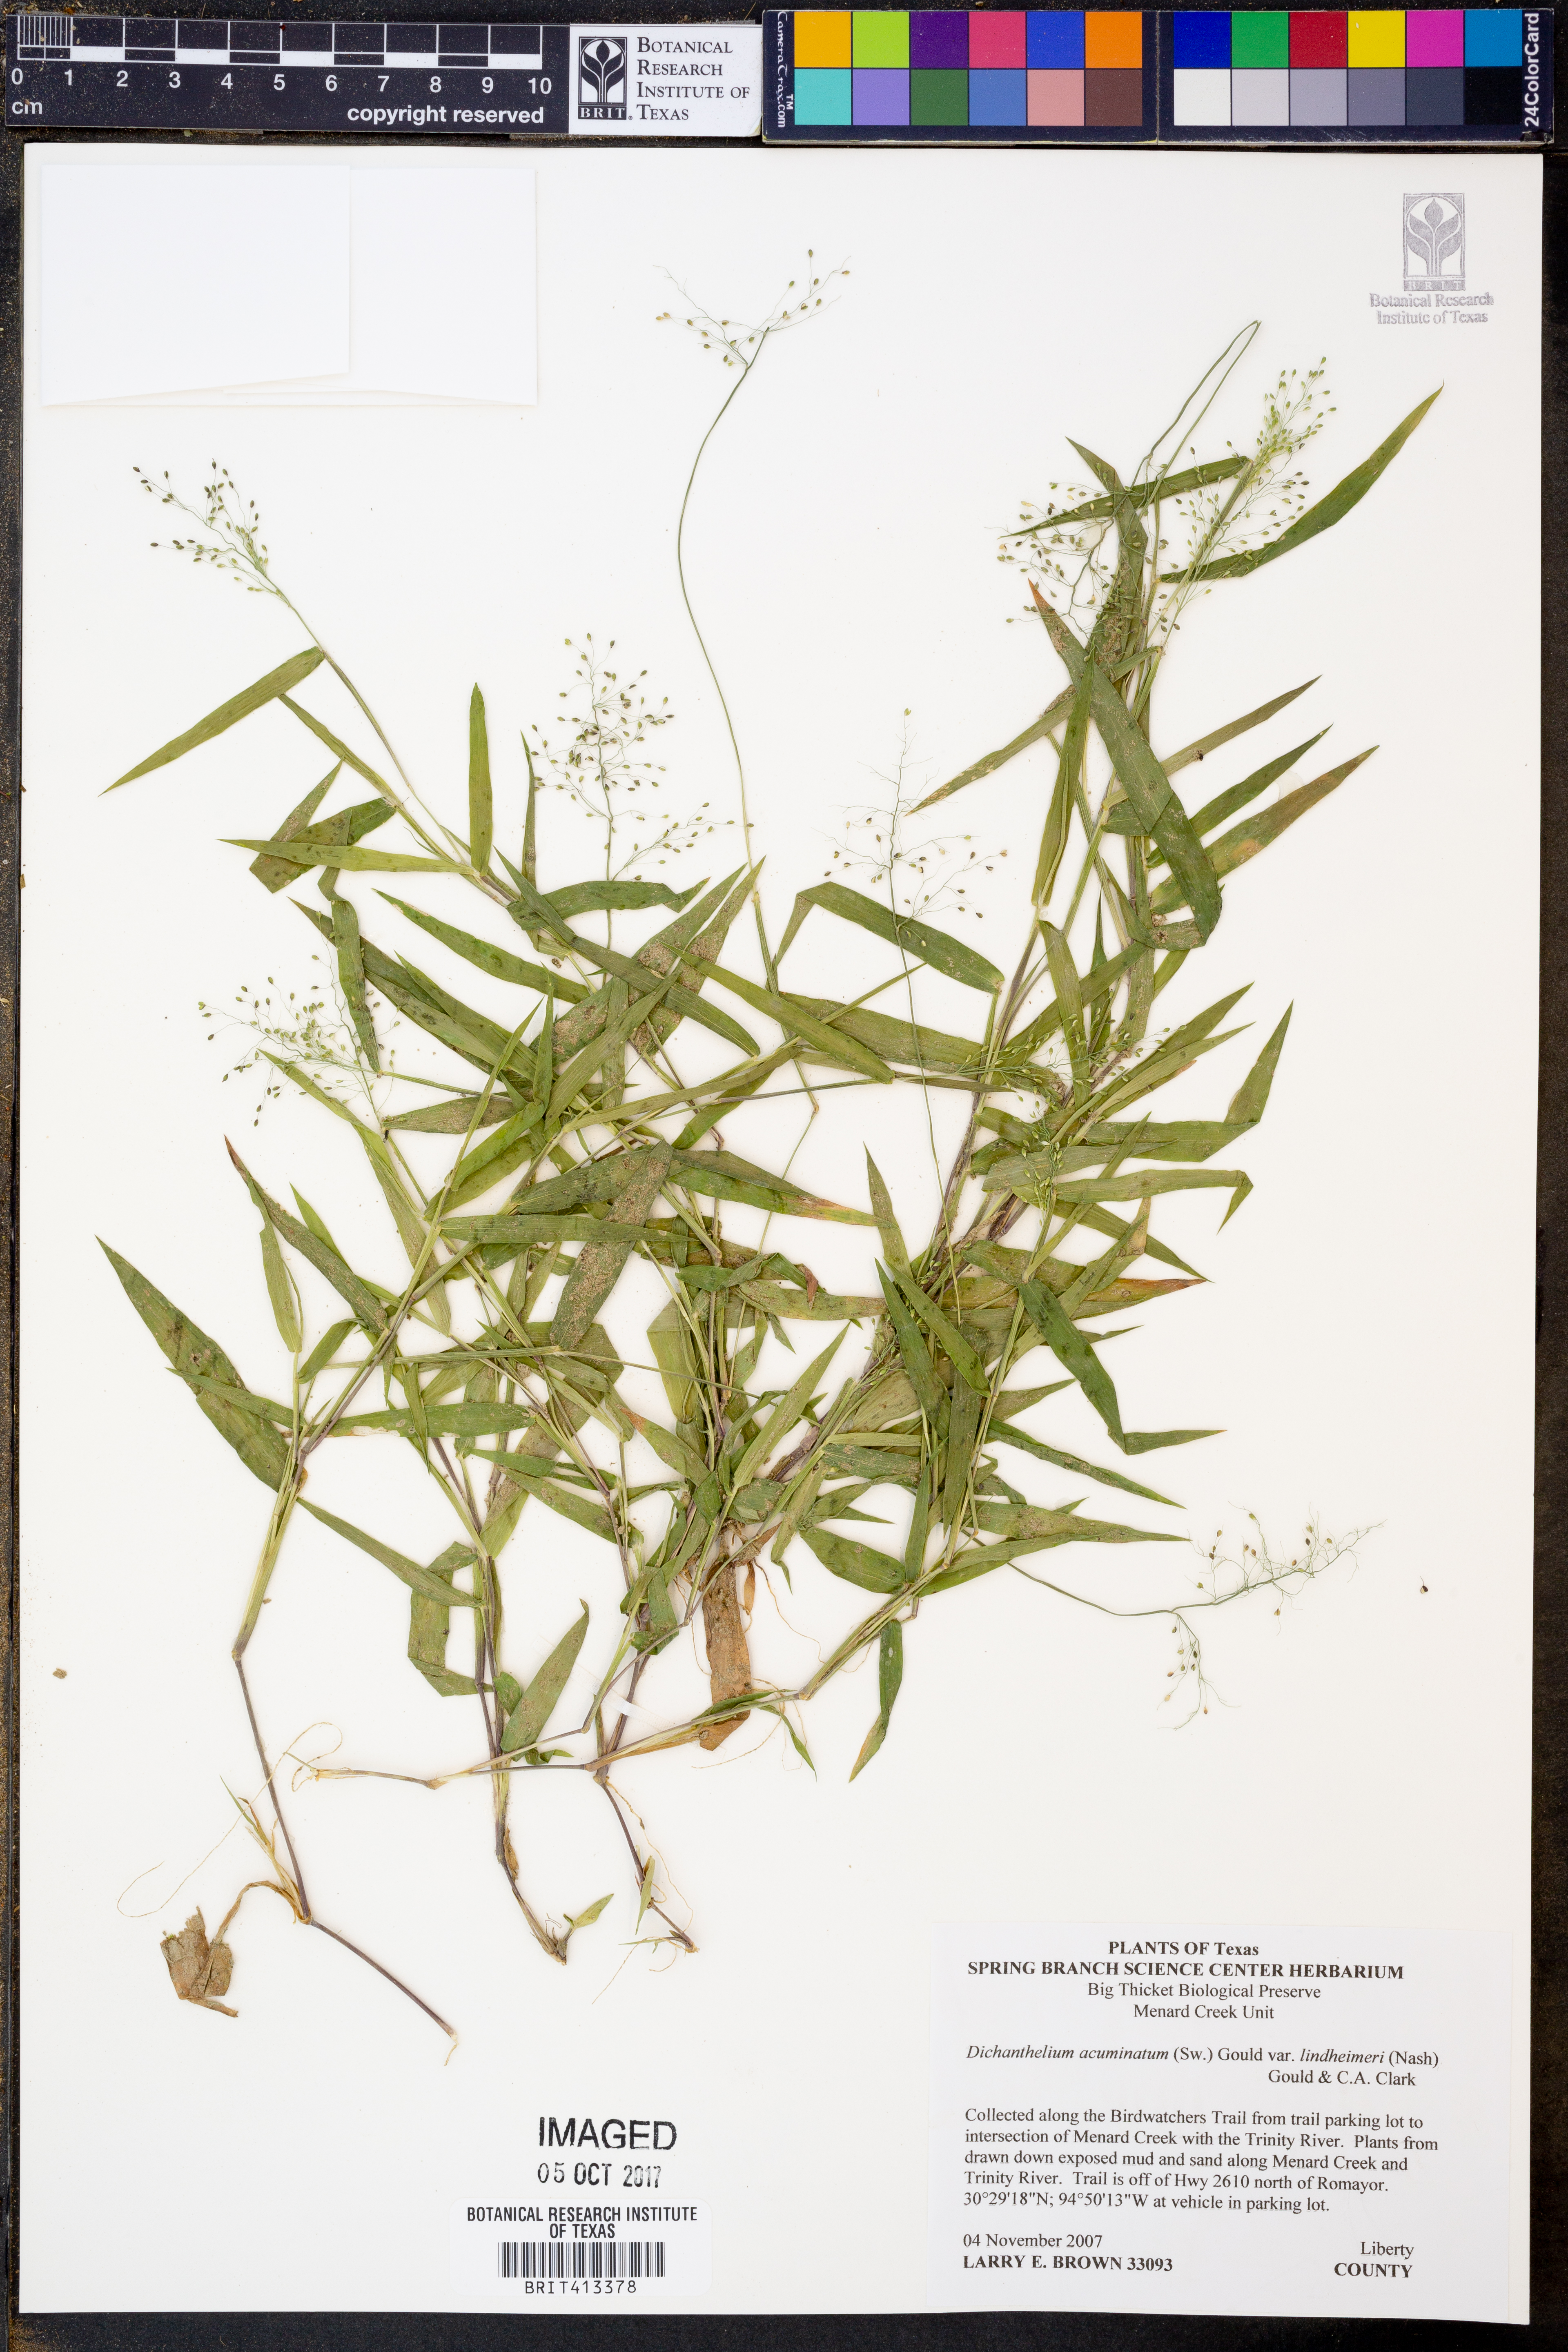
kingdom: Plantae
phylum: Tracheophyta
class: Liliopsida
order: Poales
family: Poaceae
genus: Dichanthelium
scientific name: Dichanthelium lindheimeri
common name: Lindheimer's panicgrass
